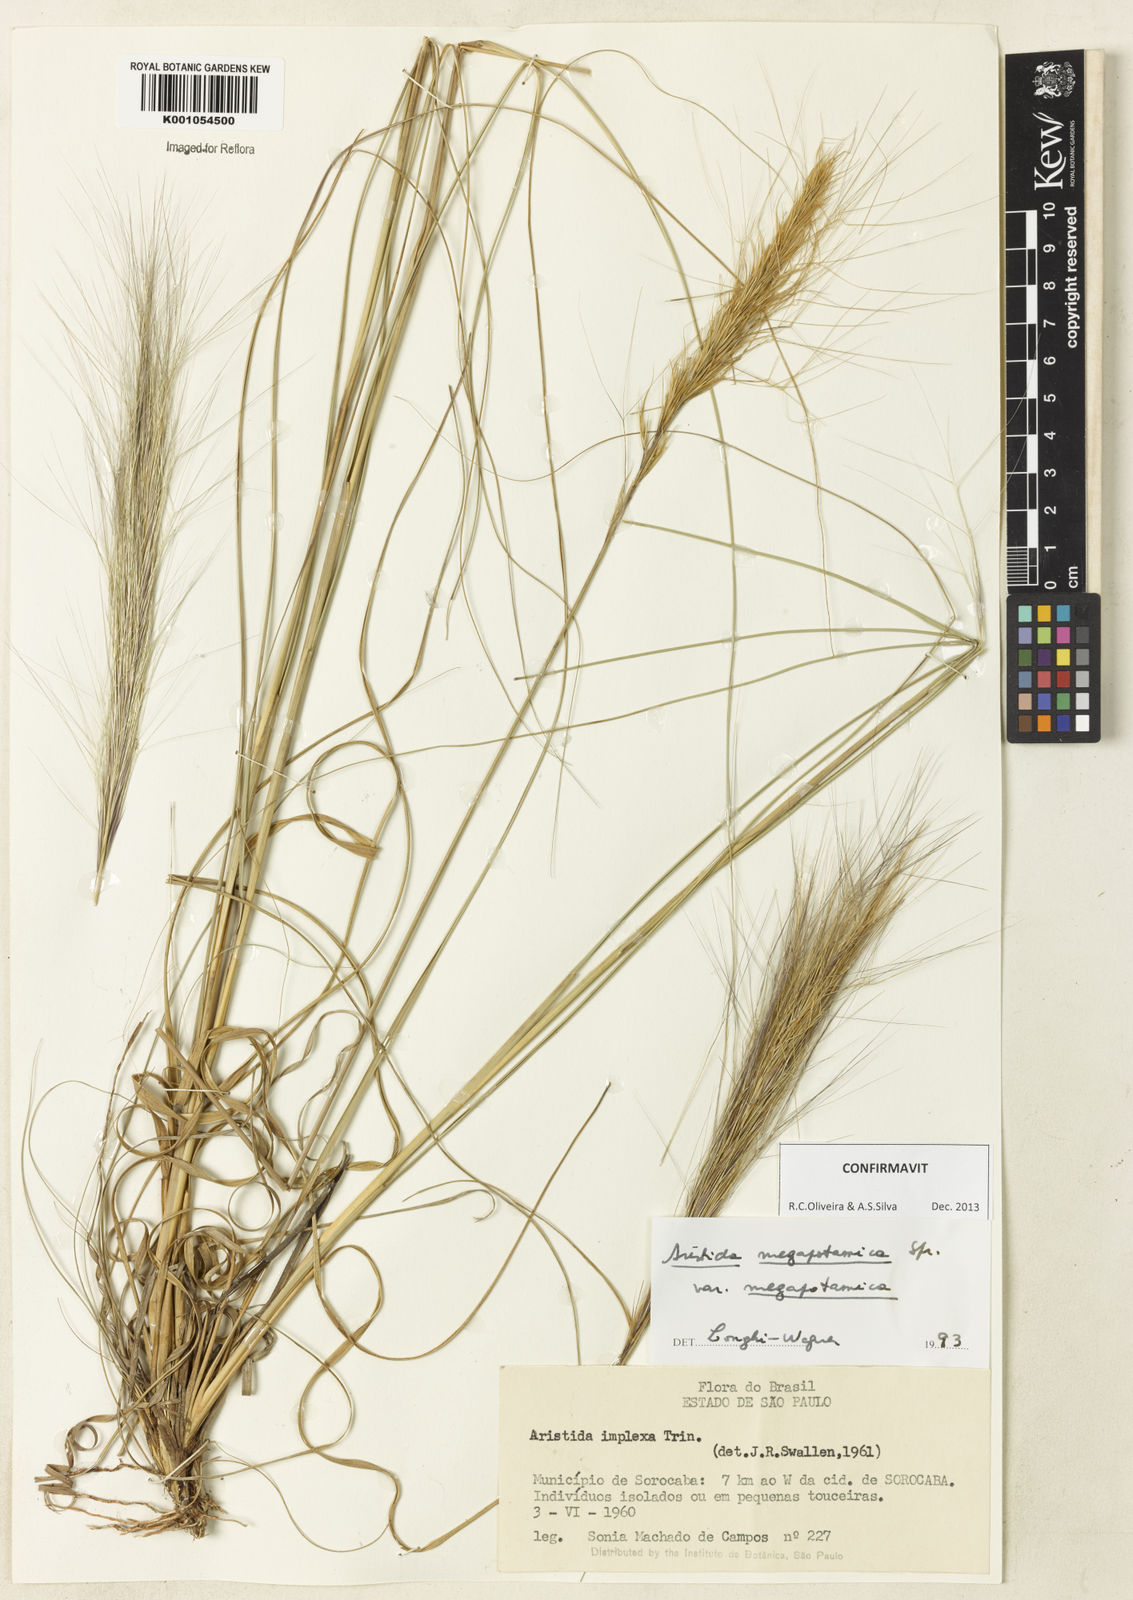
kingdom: Plantae
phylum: Tracheophyta
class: Liliopsida
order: Poales
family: Poaceae
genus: Aristida
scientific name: Aristida megapotamica
